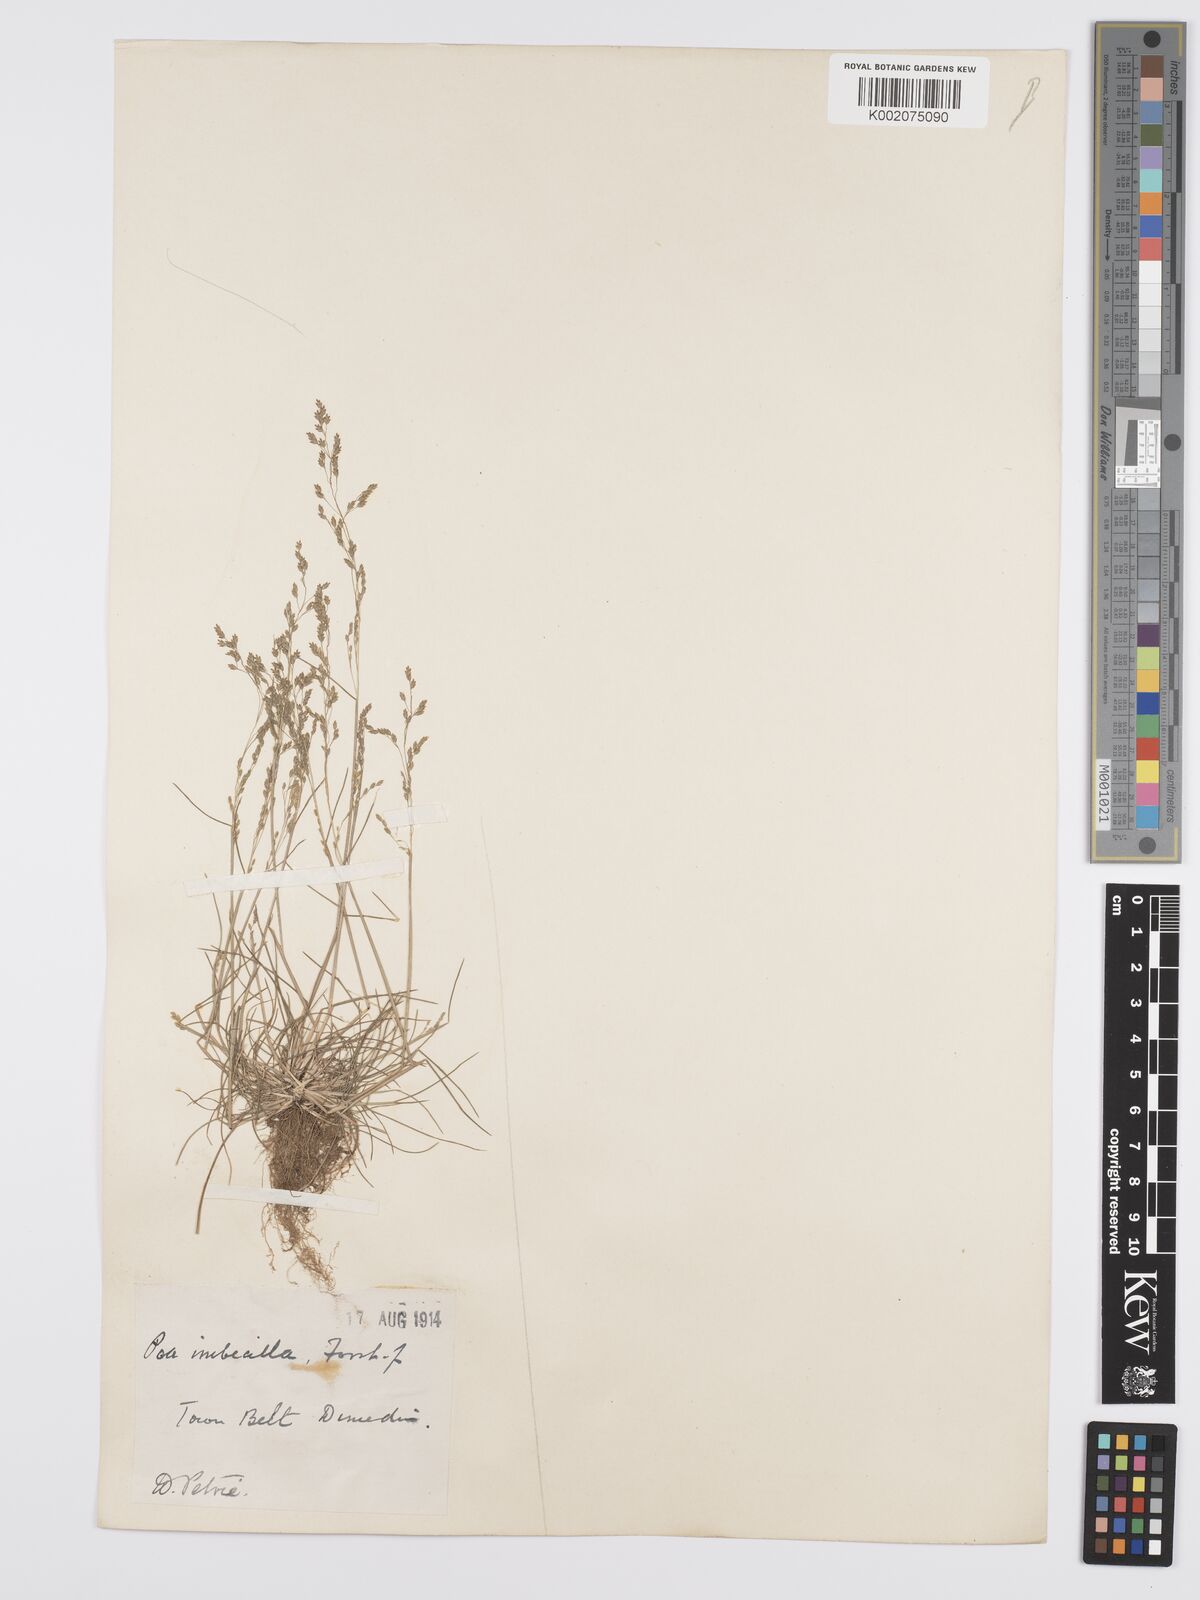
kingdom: Plantae
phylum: Tracheophyta
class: Liliopsida
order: Poales
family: Poaceae
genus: Poa
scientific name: Poa matthewsii
